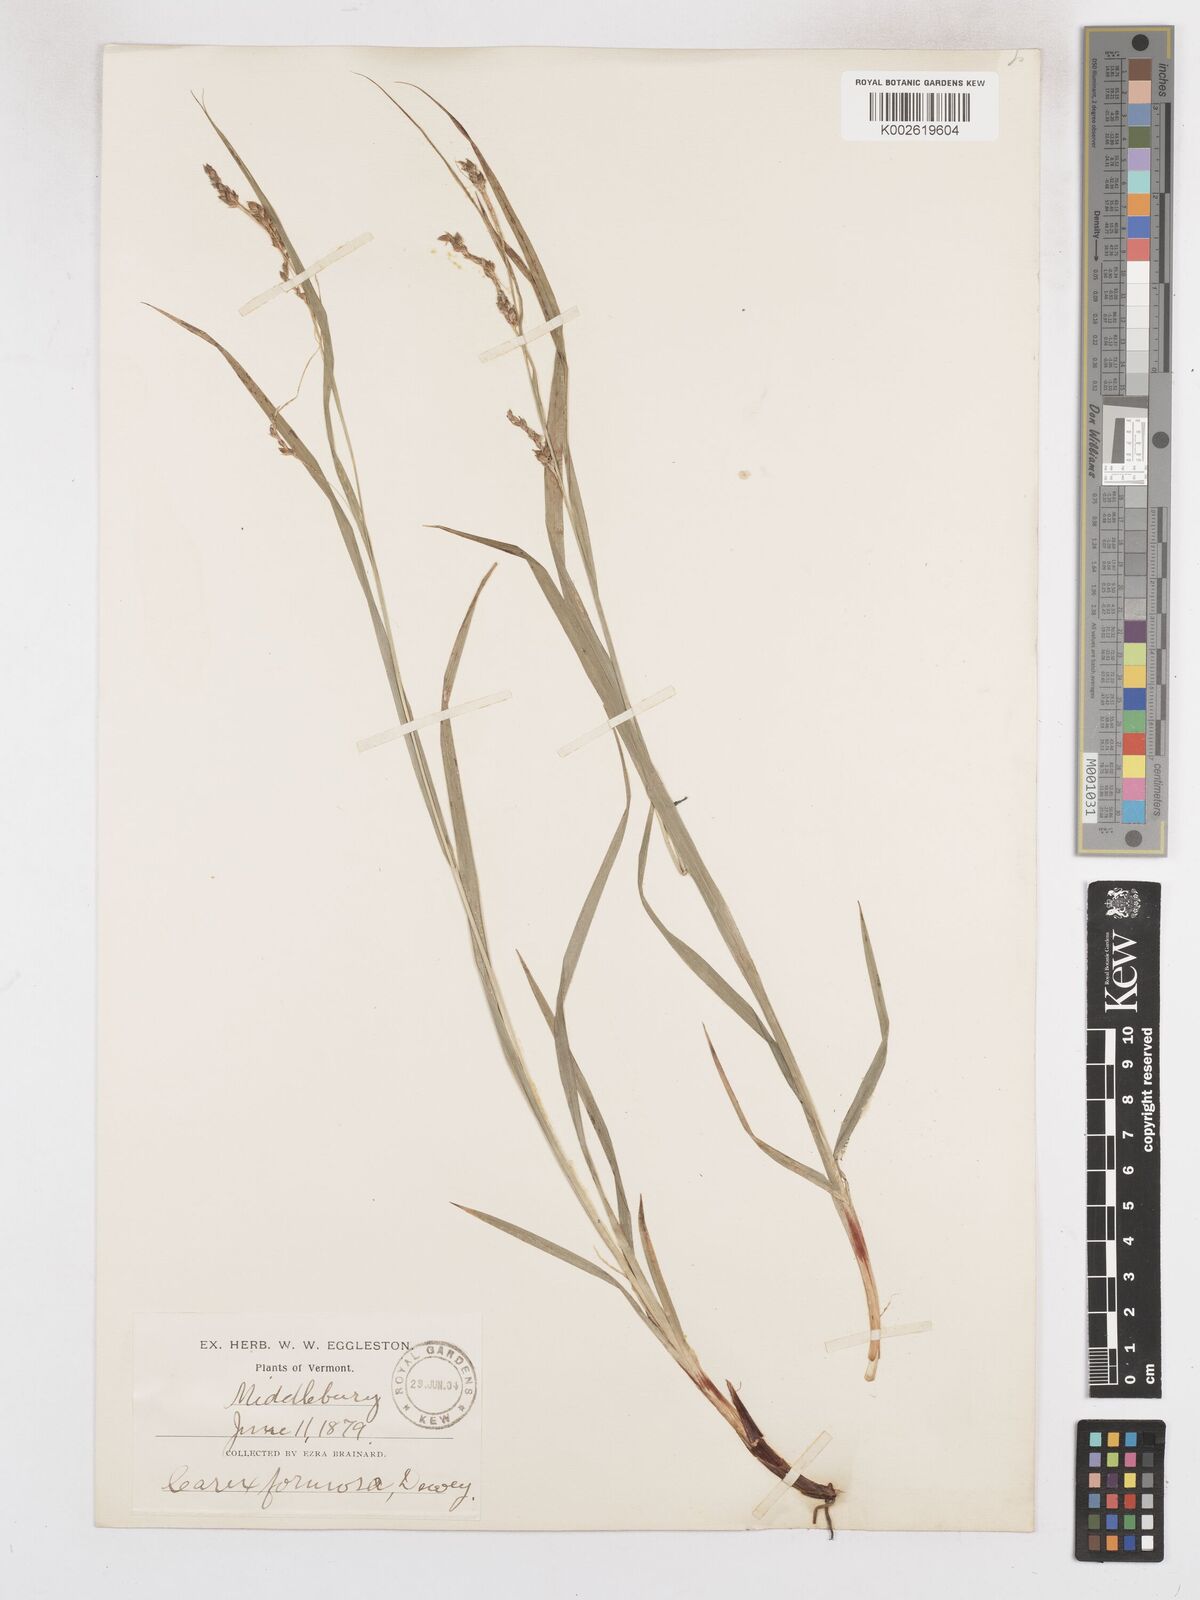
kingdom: Plantae
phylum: Tracheophyta
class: Liliopsida
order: Poales
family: Cyperaceae
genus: Carex
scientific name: Carex formosa
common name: Awnless graceful sedge
